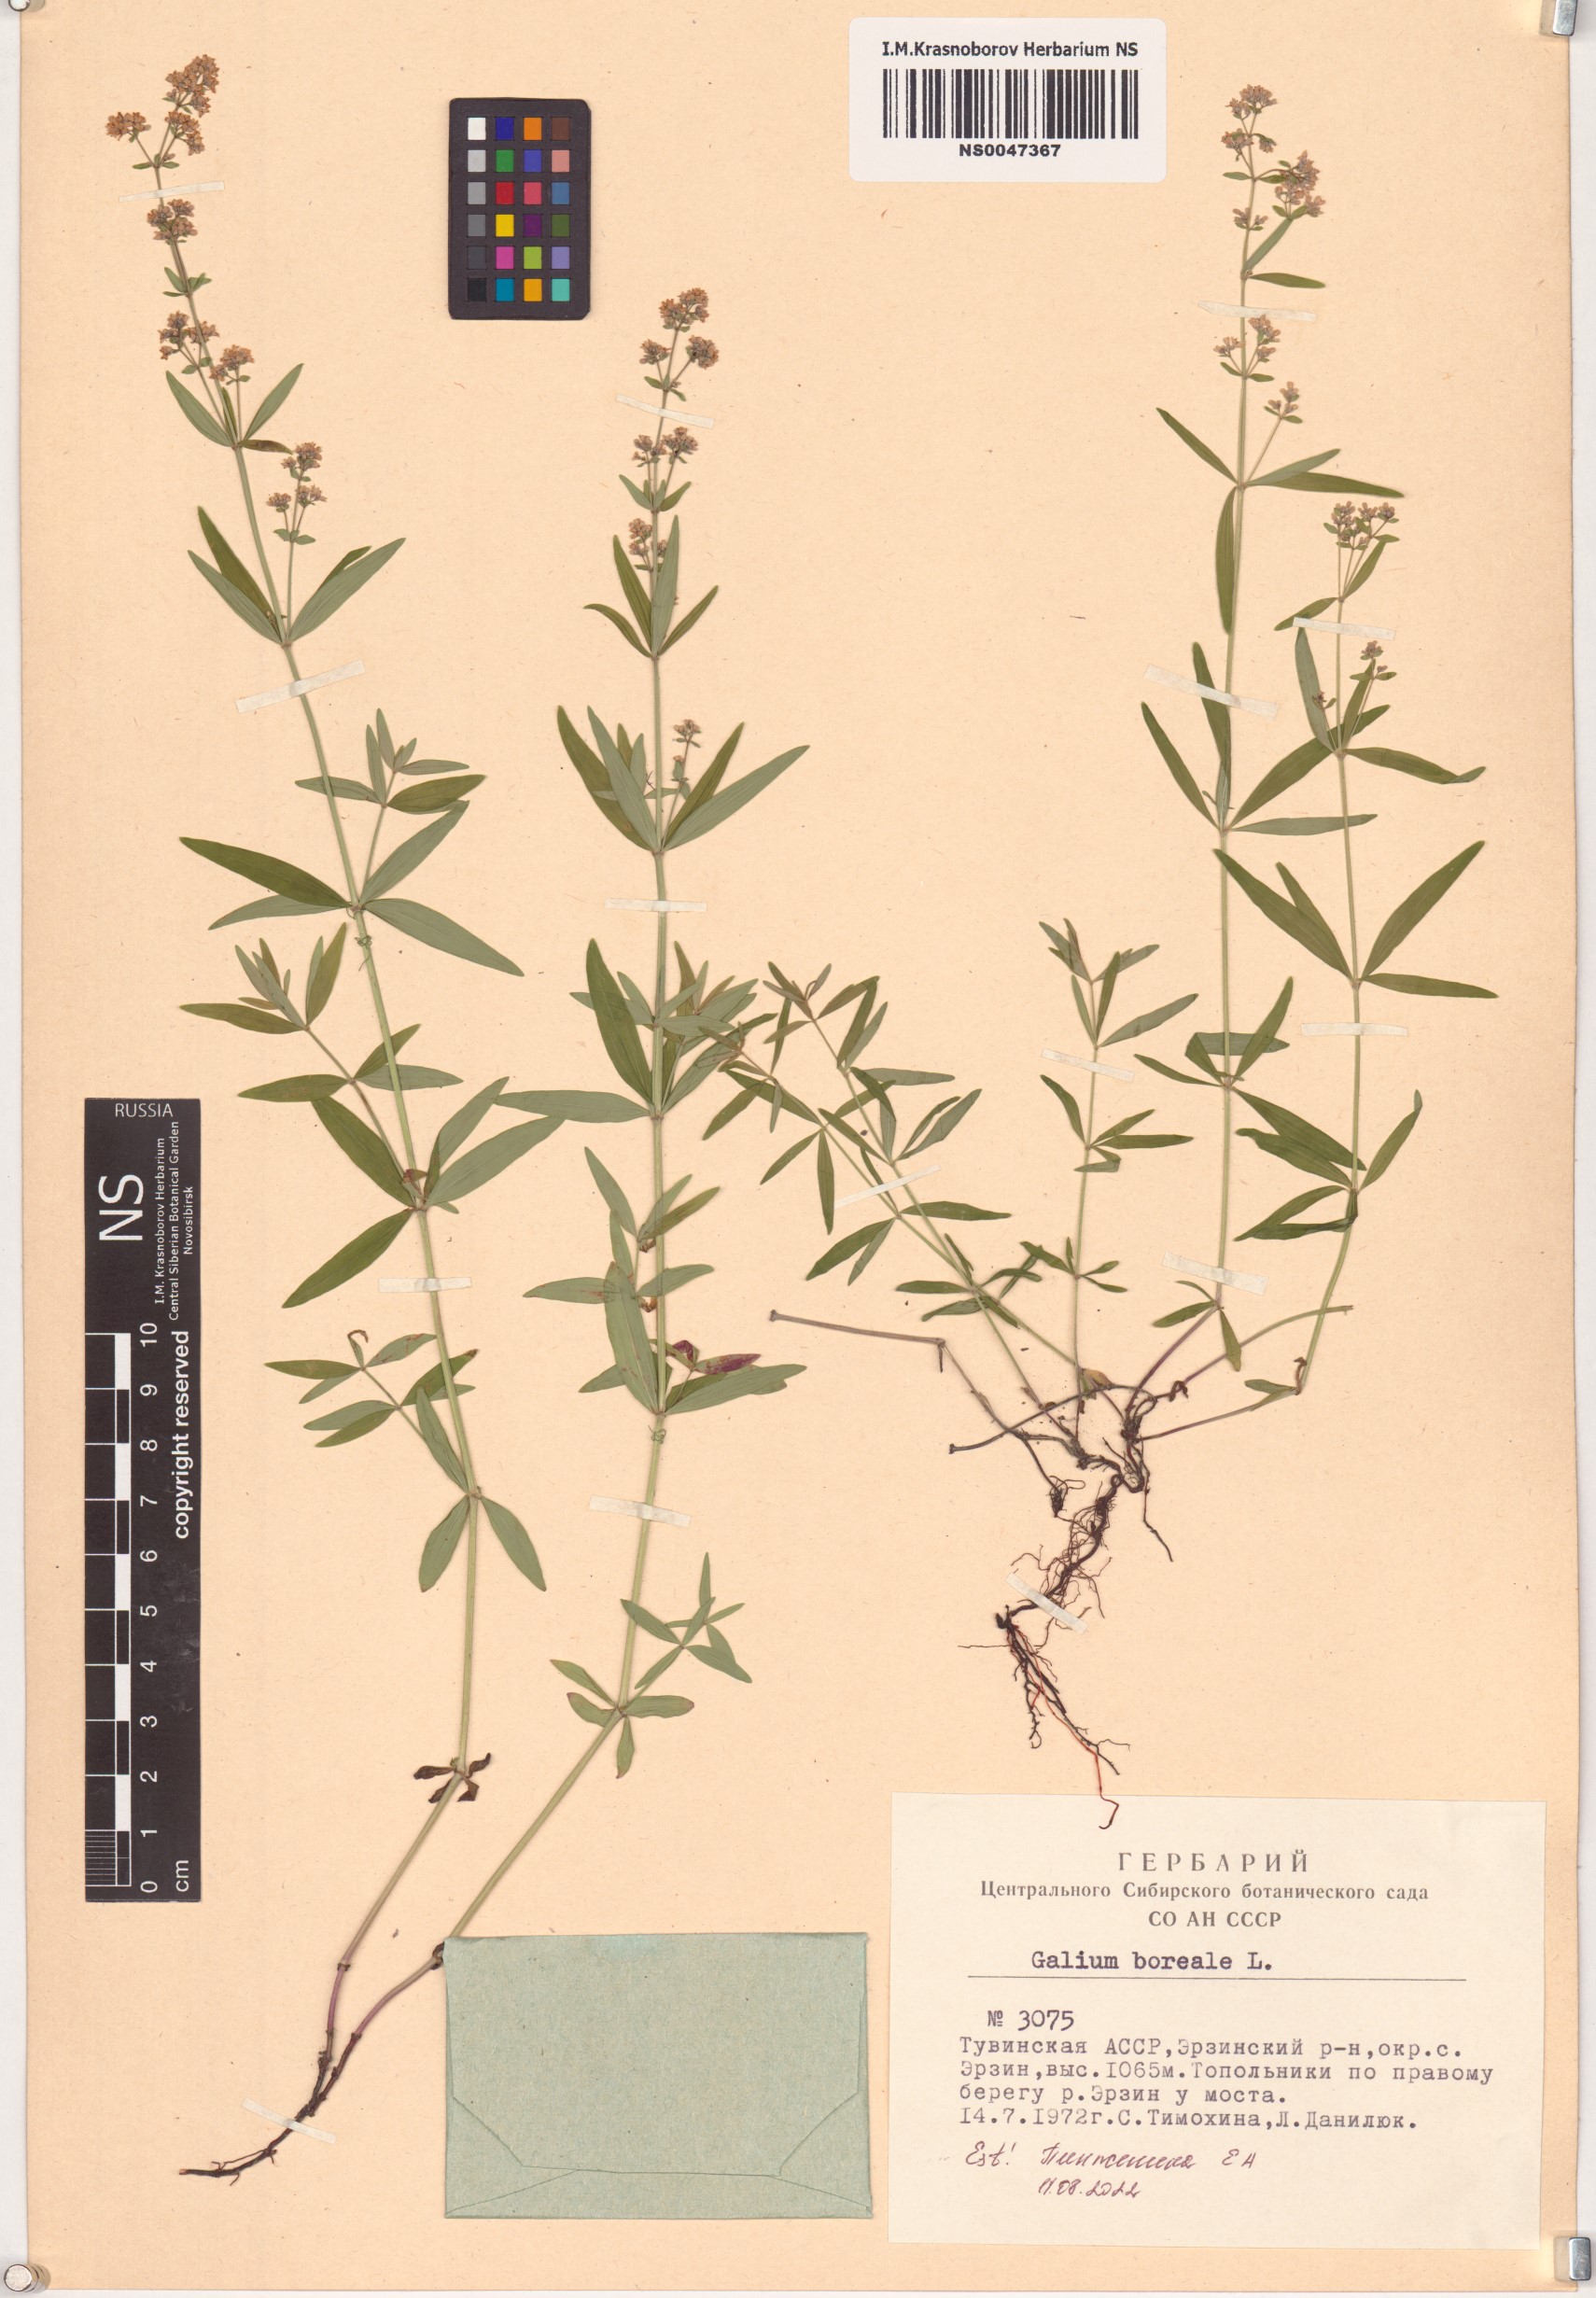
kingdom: Plantae
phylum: Tracheophyta
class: Magnoliopsida
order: Gentianales
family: Rubiaceae
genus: Galium
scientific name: Galium boreale
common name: Northern bedstraw
